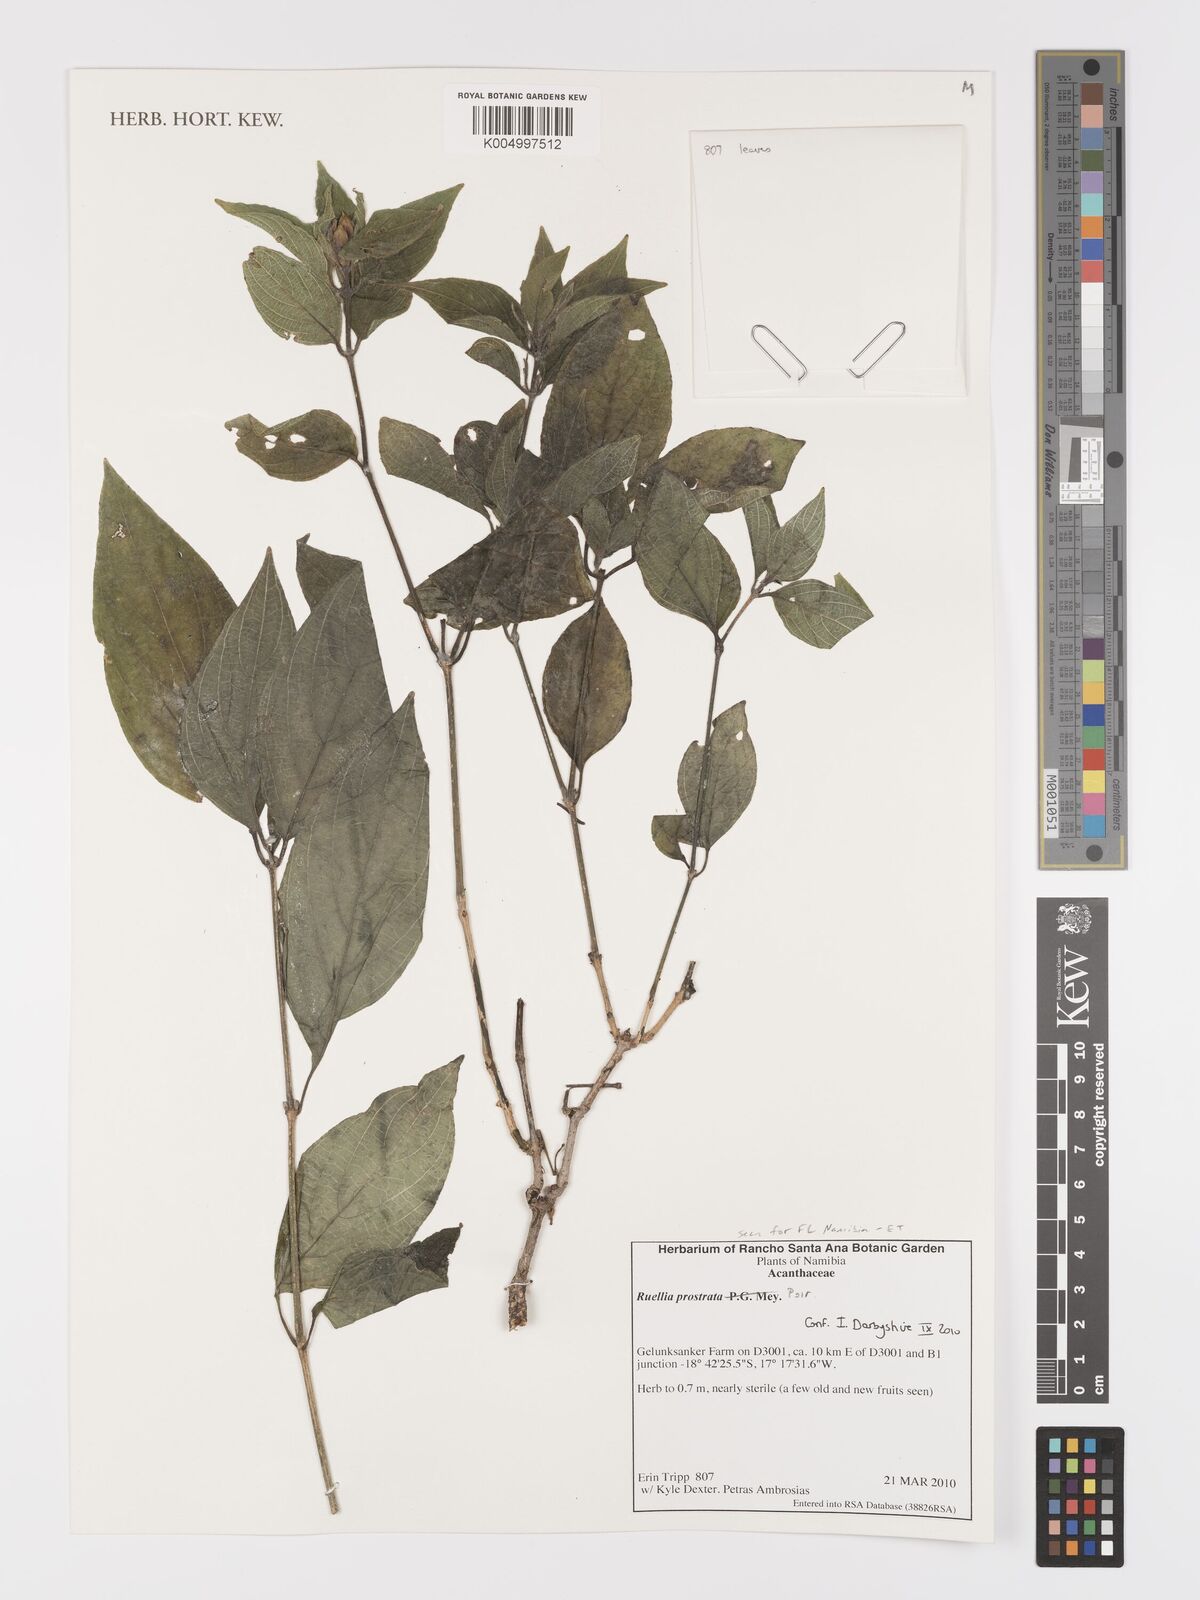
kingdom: Plantae
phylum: Tracheophyta
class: Magnoliopsida
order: Lamiales
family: Acanthaceae
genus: Ruellia
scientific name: Ruellia
